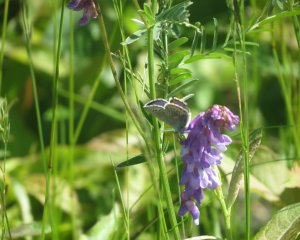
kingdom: Animalia
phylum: Arthropoda
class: Insecta
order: Lepidoptera
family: Lycaenidae
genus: Glaucopsyche
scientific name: Glaucopsyche lygdamus
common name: Silvery Blue
